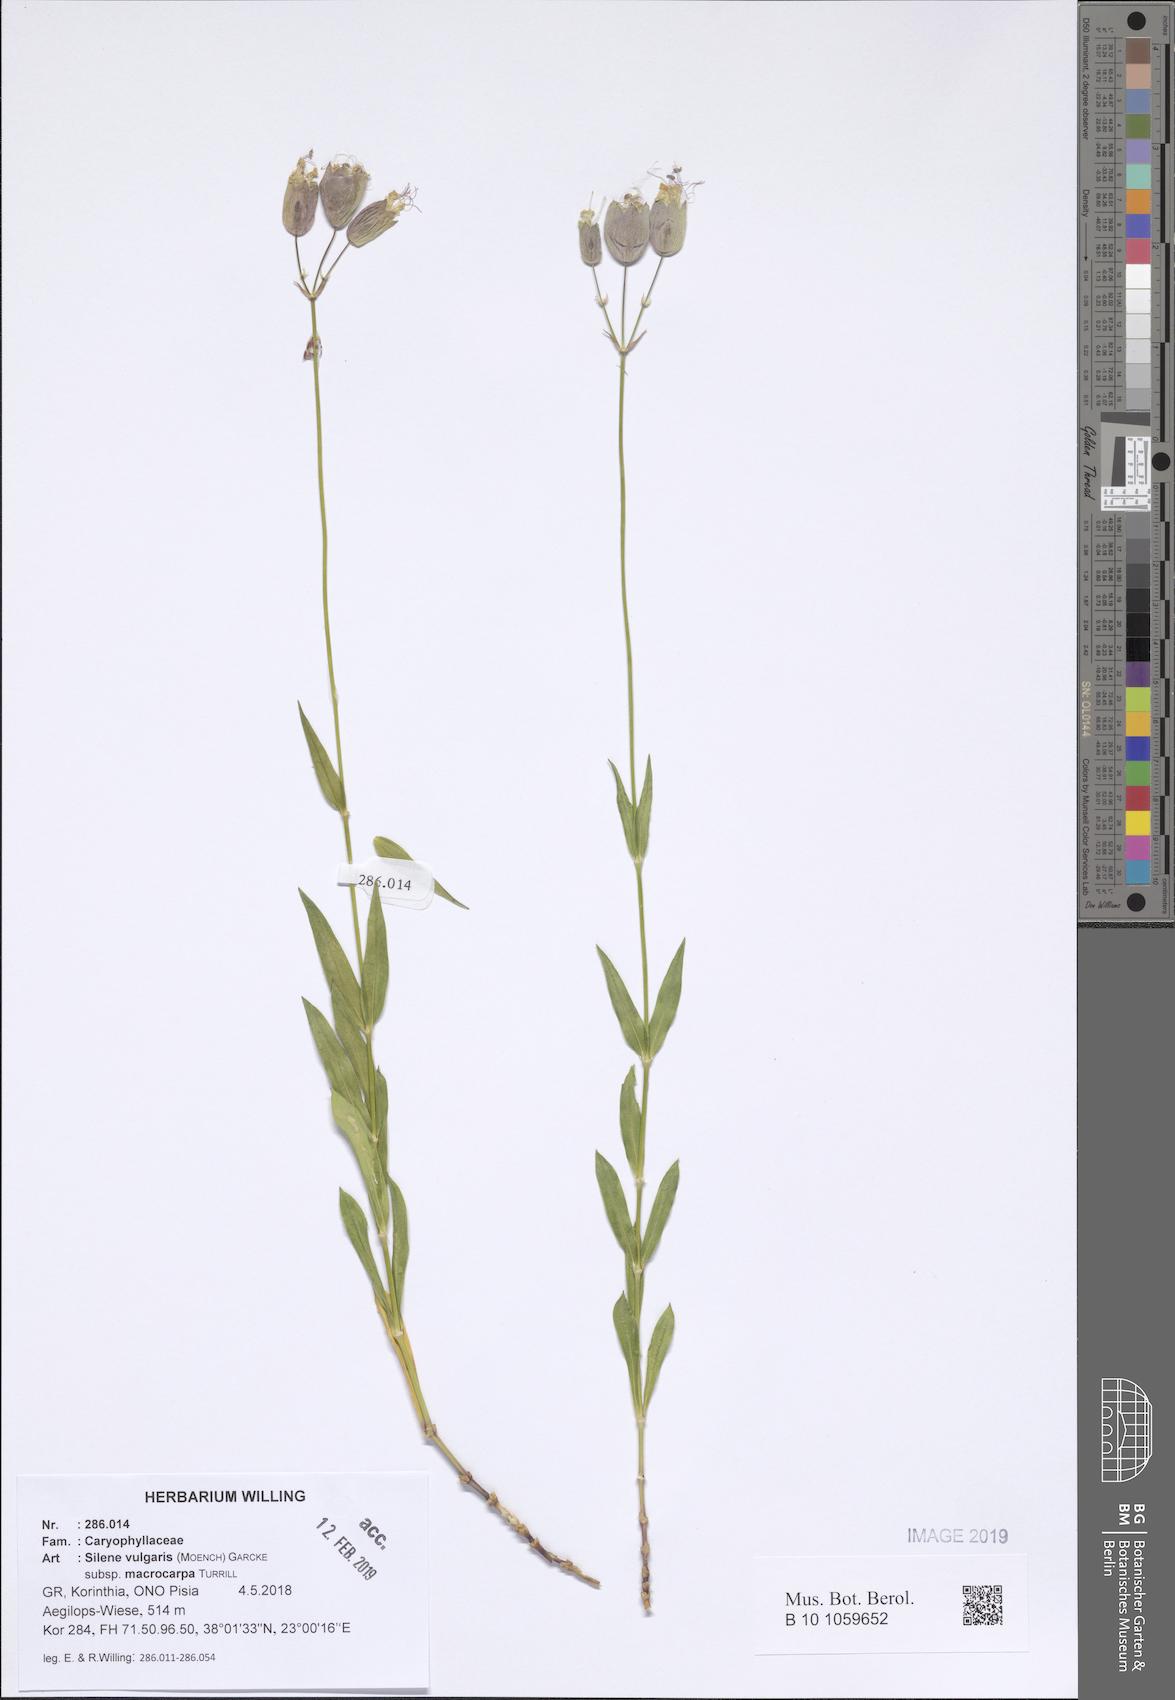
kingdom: Plantae
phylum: Tracheophyta
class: Magnoliopsida
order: Caryophyllales
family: Caryophyllaceae
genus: Silene
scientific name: Silene vulgaris
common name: Bladder campion
